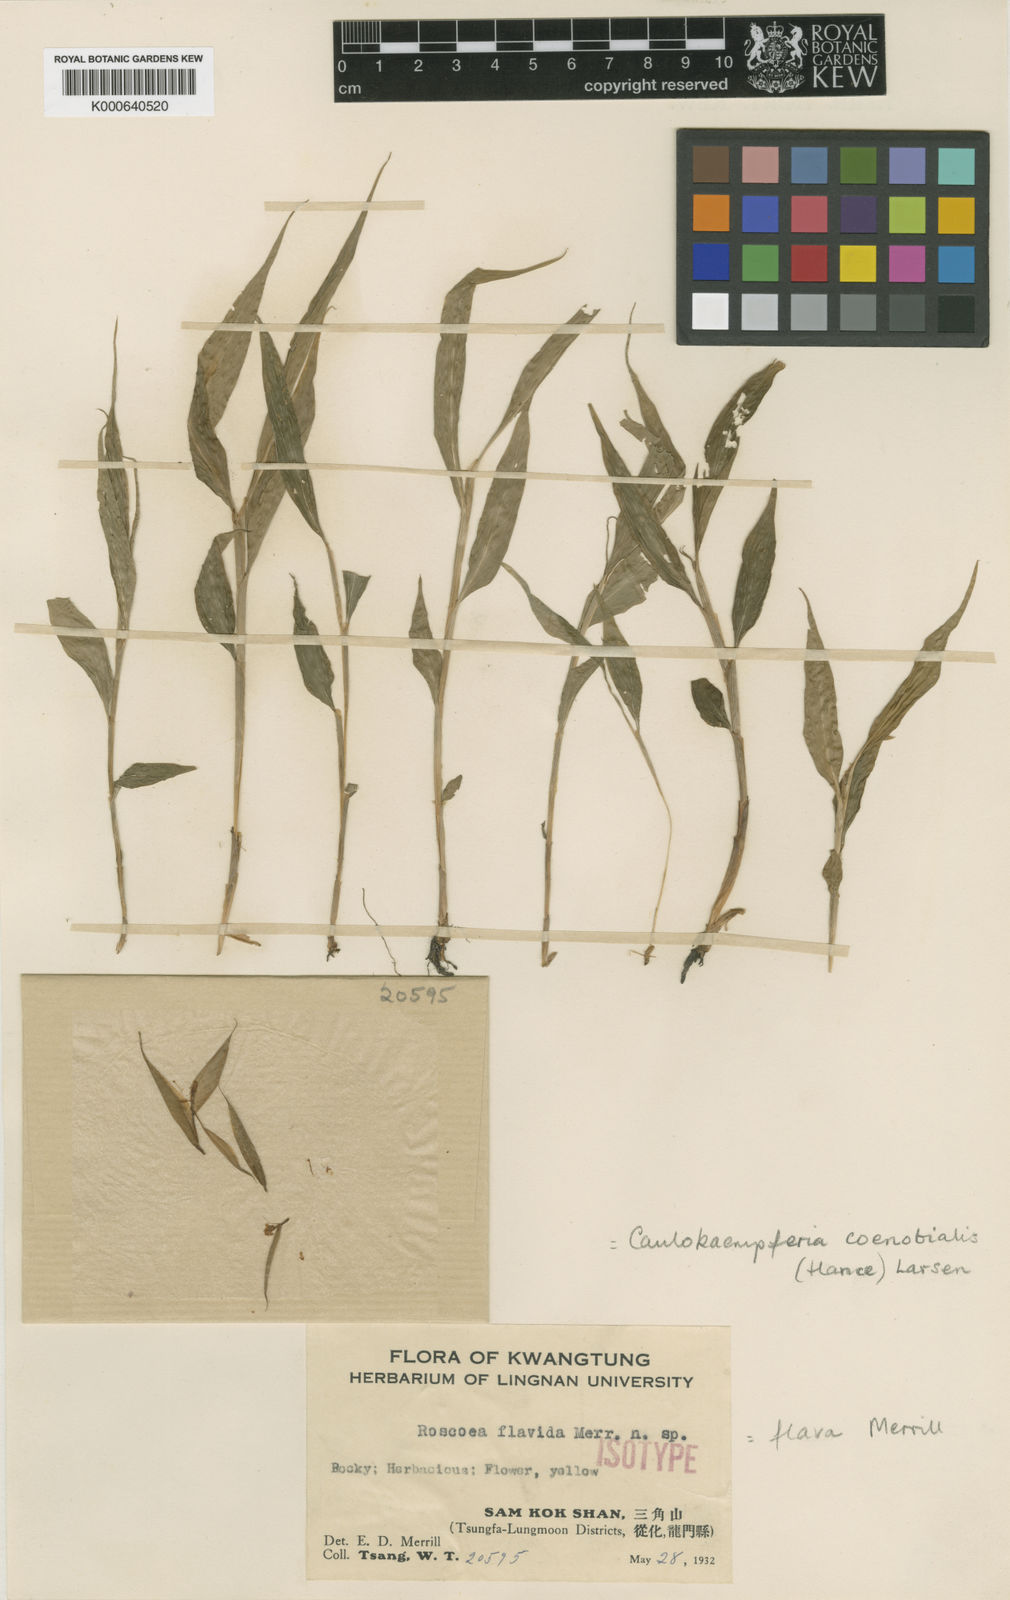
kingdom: Plantae
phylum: Tracheophyta
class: Liliopsida
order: Zingiberales
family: Zingiberaceae
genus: Caulokaempferia
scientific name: Caulokaempferia coenobialis
